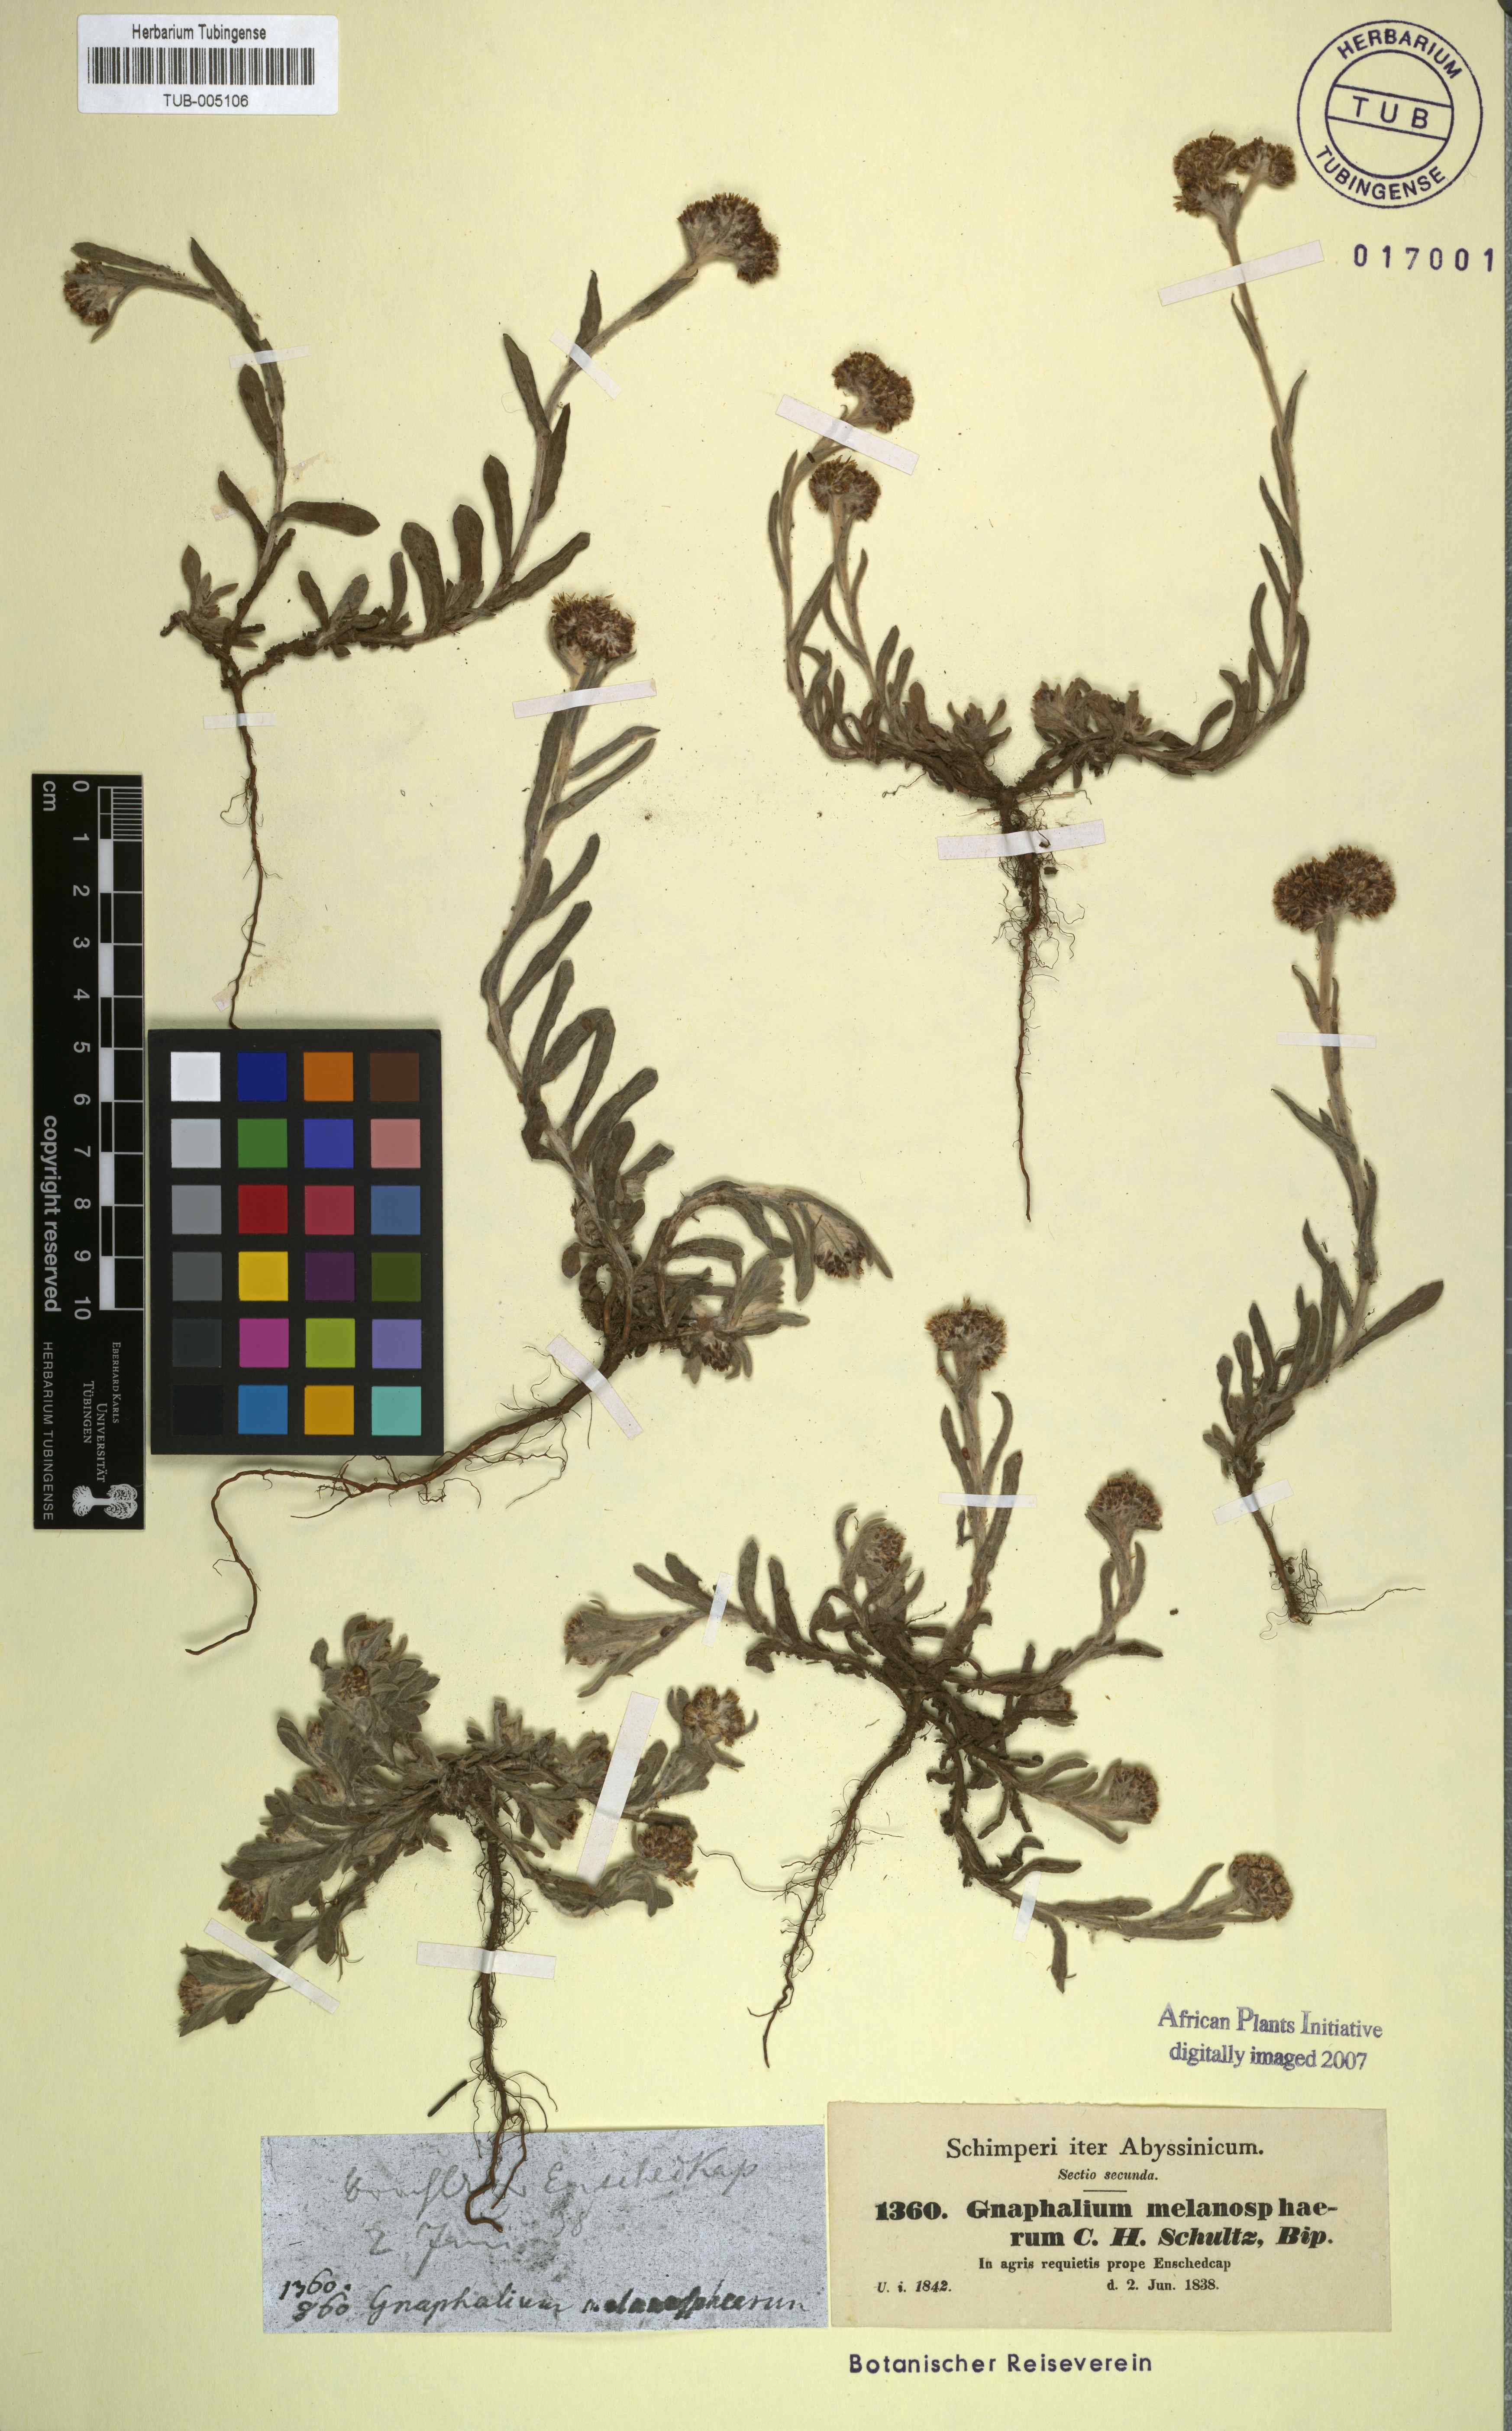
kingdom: Plantae
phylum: Tracheophyta
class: Magnoliopsida
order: Asterales
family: Asteraceae
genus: Pseudognaphalium
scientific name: Pseudognaphalium melanosphaerum
